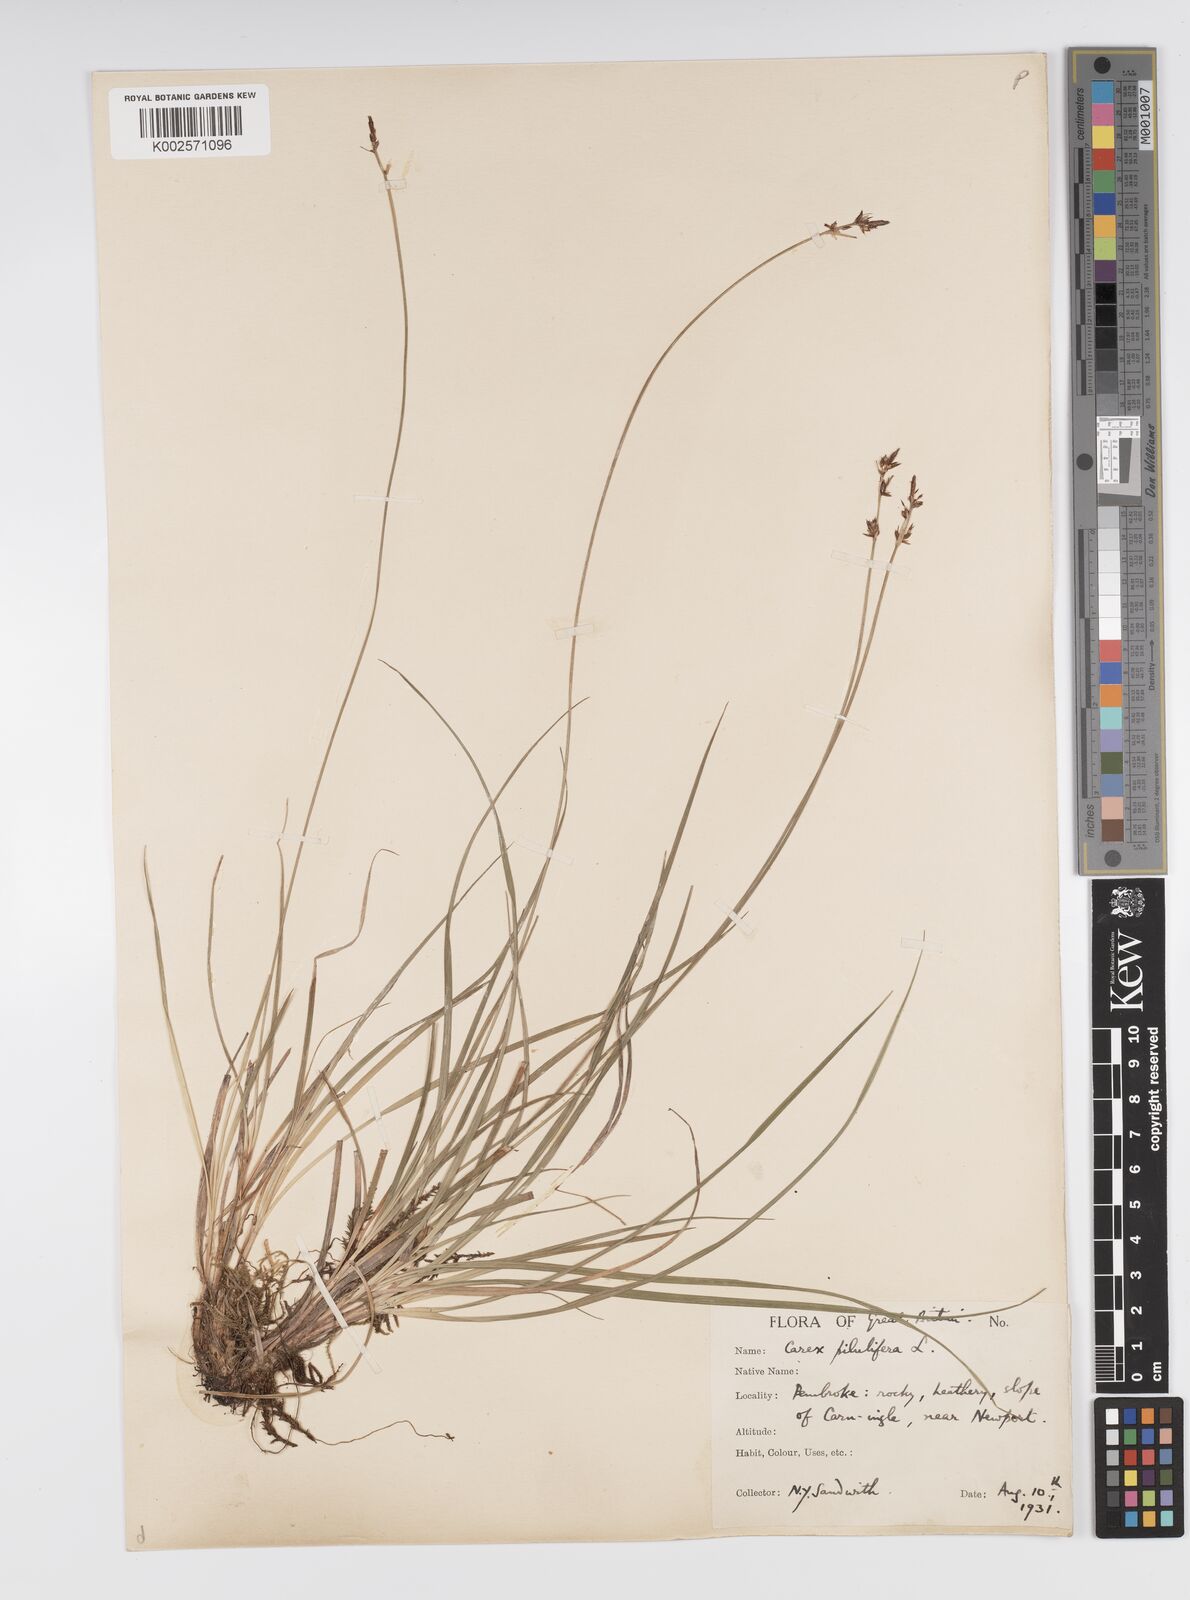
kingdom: Plantae
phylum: Tracheophyta
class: Liliopsida
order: Poales
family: Cyperaceae
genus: Carex
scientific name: Carex pilulifera
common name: Pill sedge
